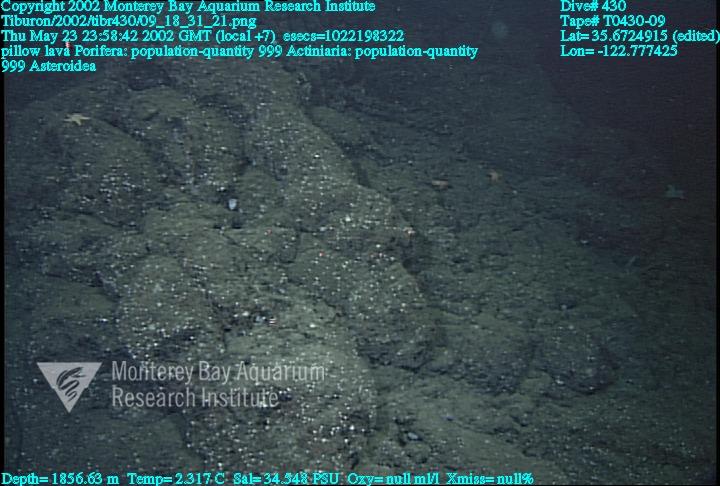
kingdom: Animalia
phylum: Porifera
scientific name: Porifera
